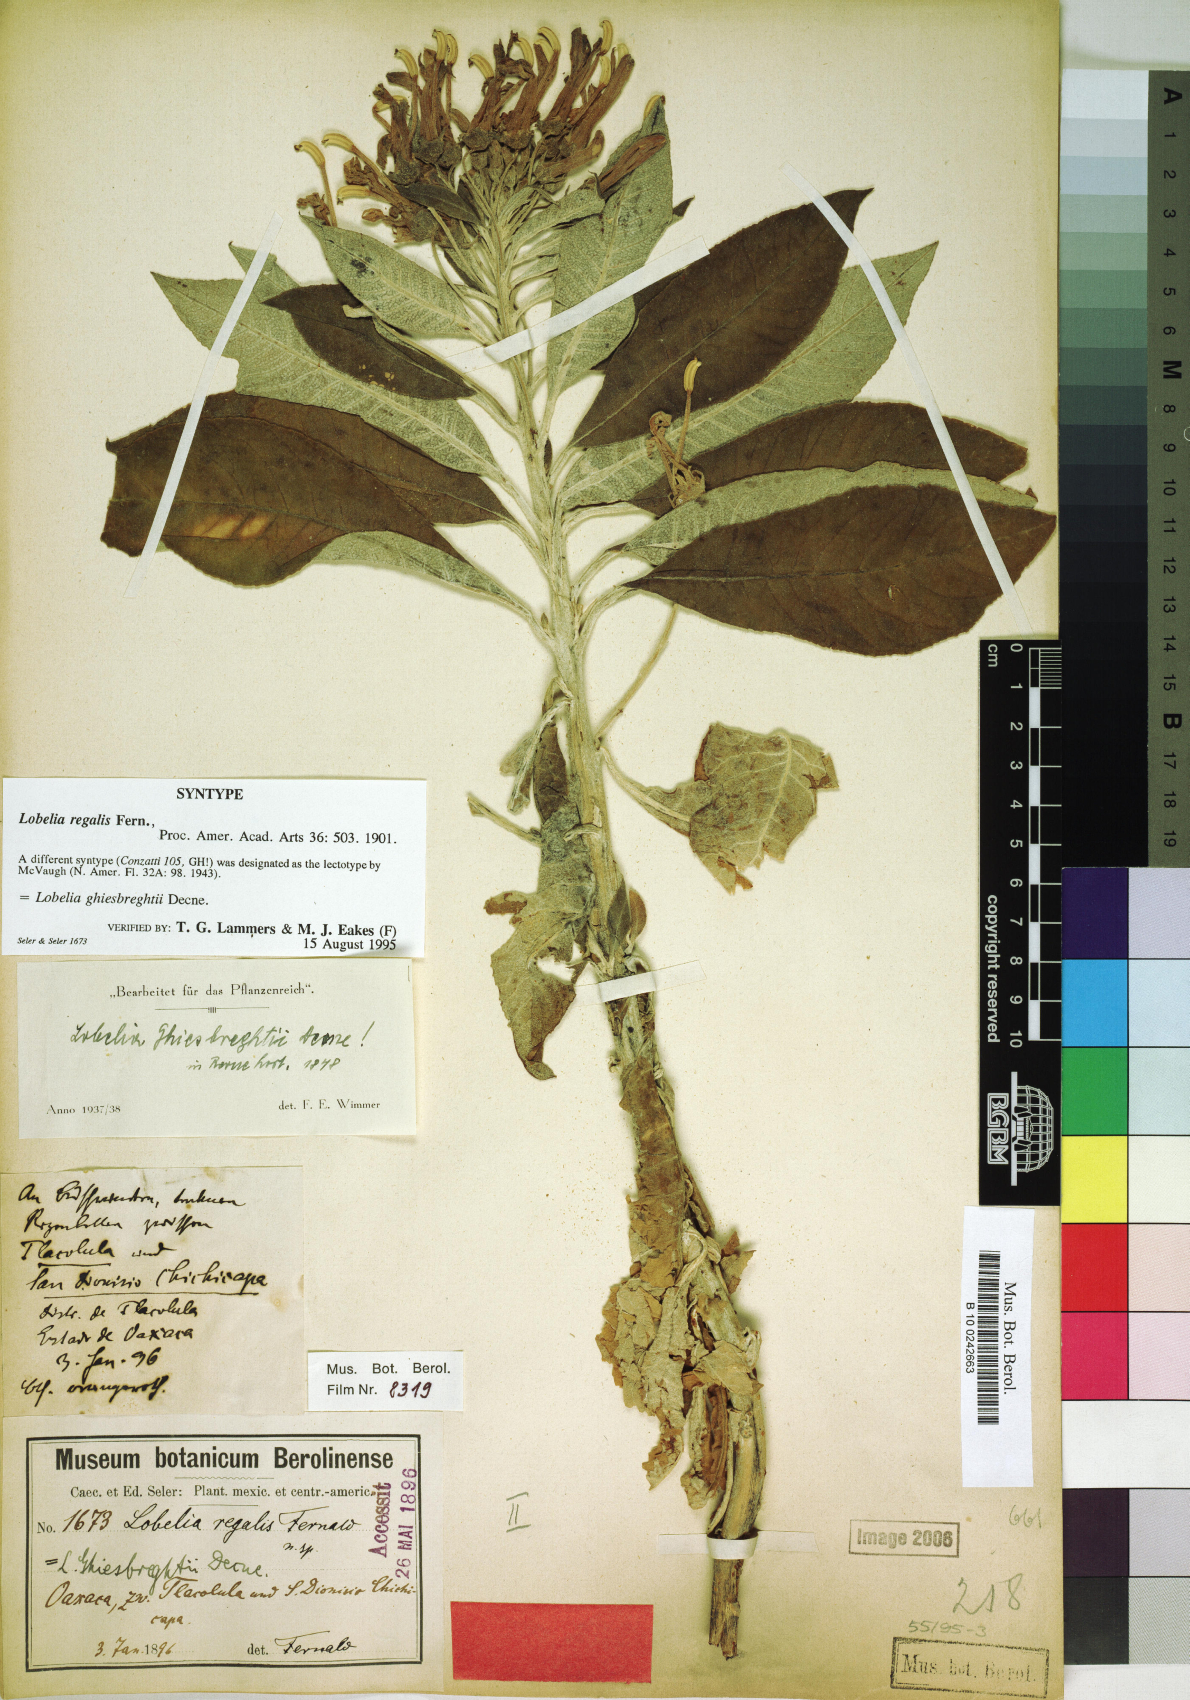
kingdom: Plantae
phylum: Tracheophyta
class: Magnoliopsida
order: Asterales
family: Campanulaceae
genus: Lobelia
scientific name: Lobelia ghiesbreghtii
